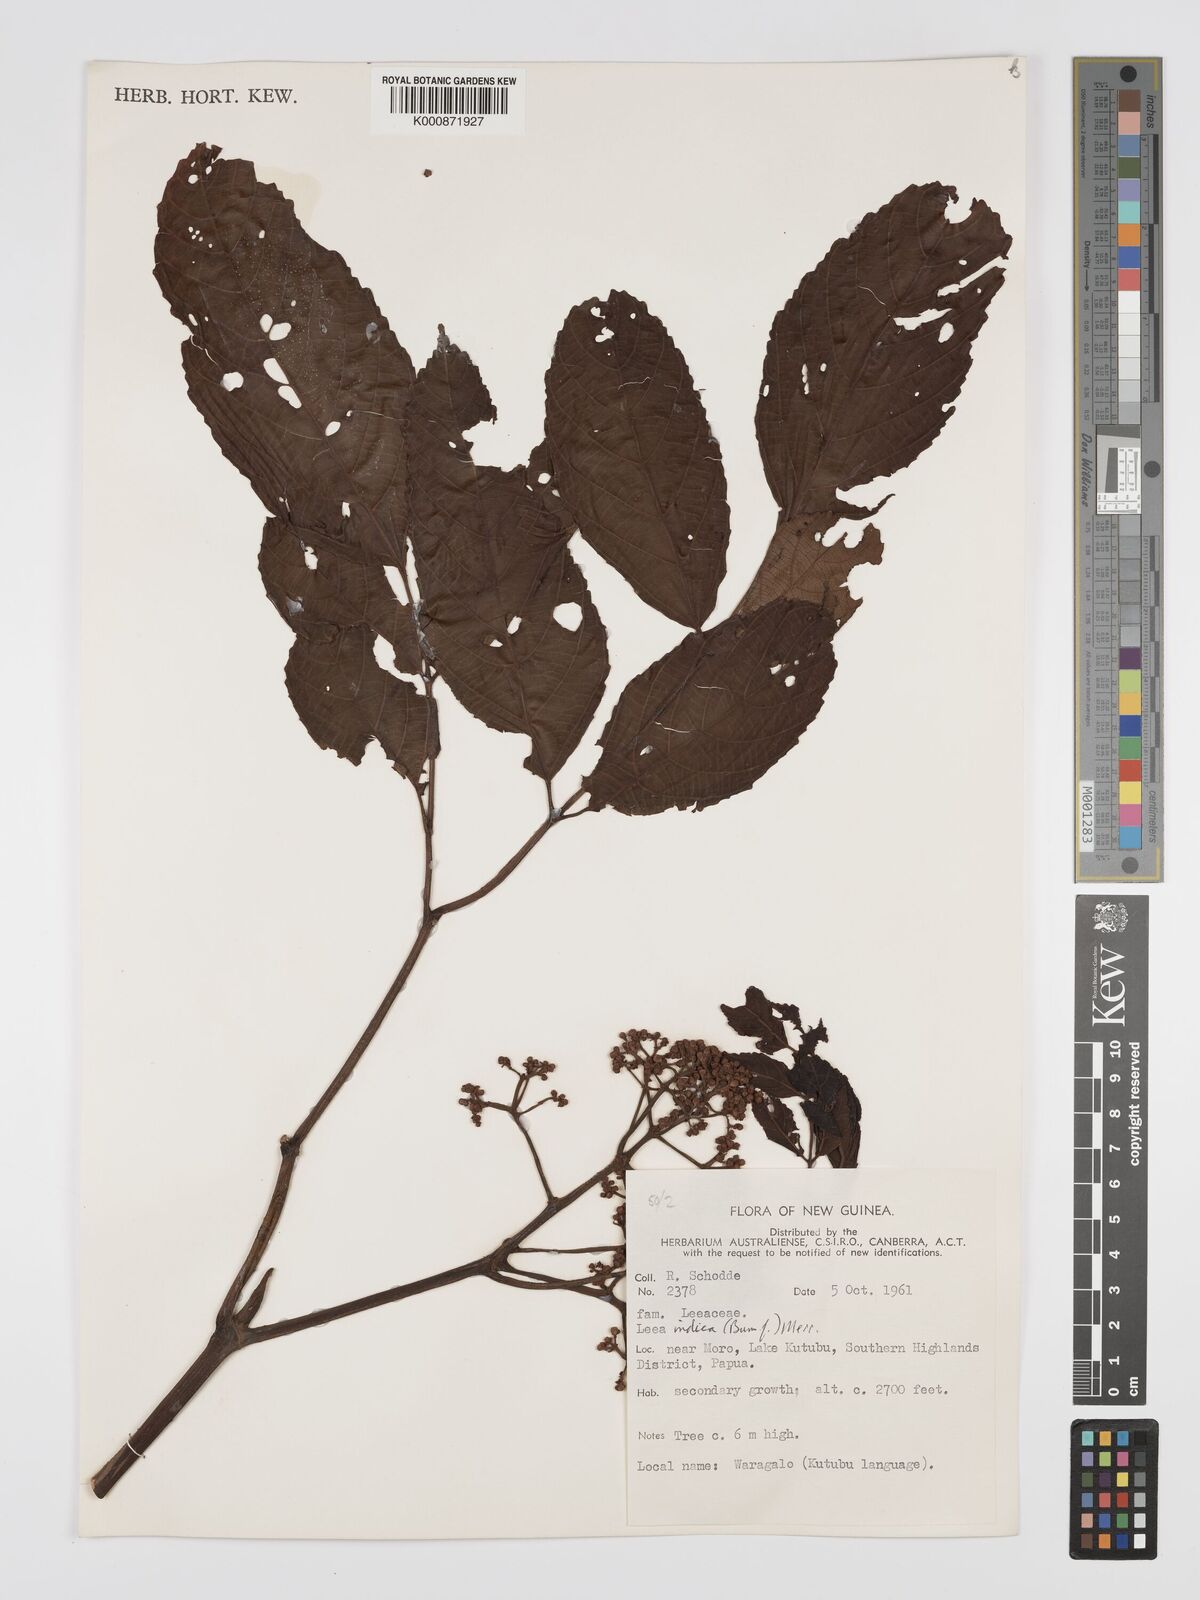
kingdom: Plantae
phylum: Tracheophyta
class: Magnoliopsida
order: Vitales
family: Vitaceae
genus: Leea
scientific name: Leea indica
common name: Bandicoot-berry
